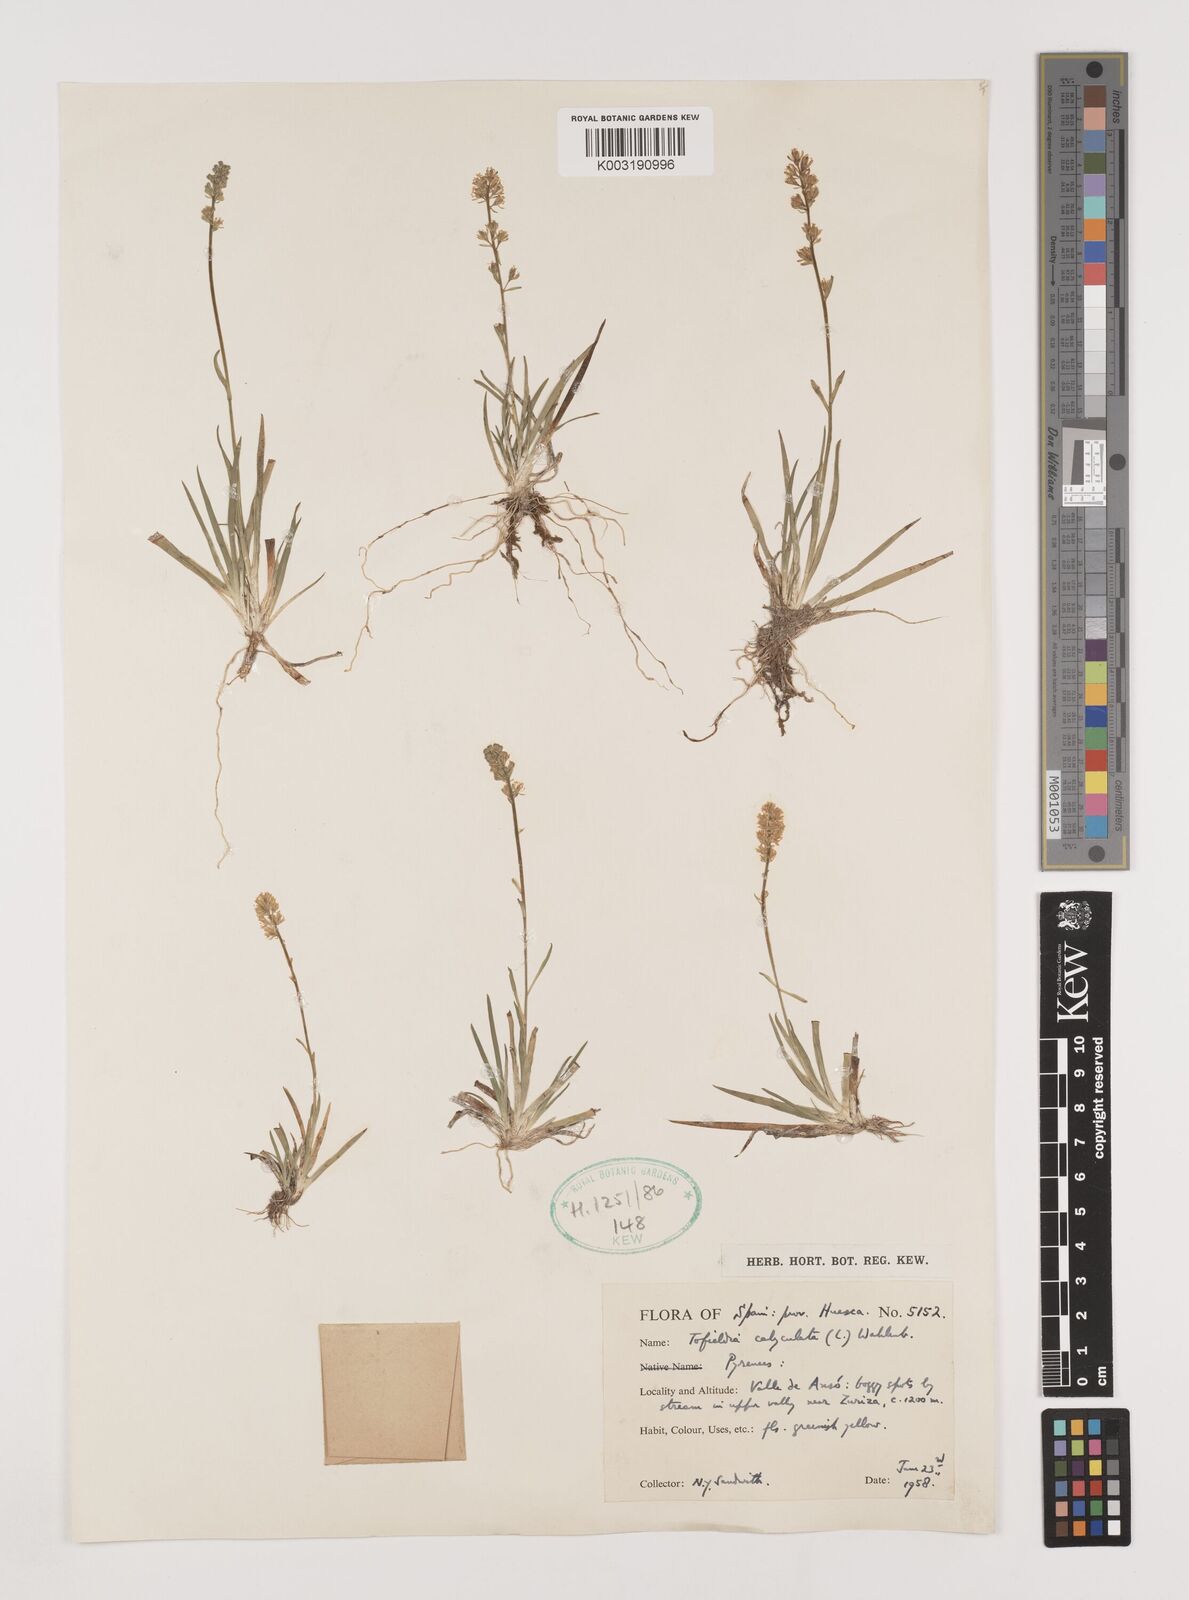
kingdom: Plantae
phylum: Tracheophyta
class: Liliopsida
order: Alismatales
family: Tofieldiaceae
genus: Tofieldia
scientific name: Tofieldia calyculata
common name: German-asphodel
